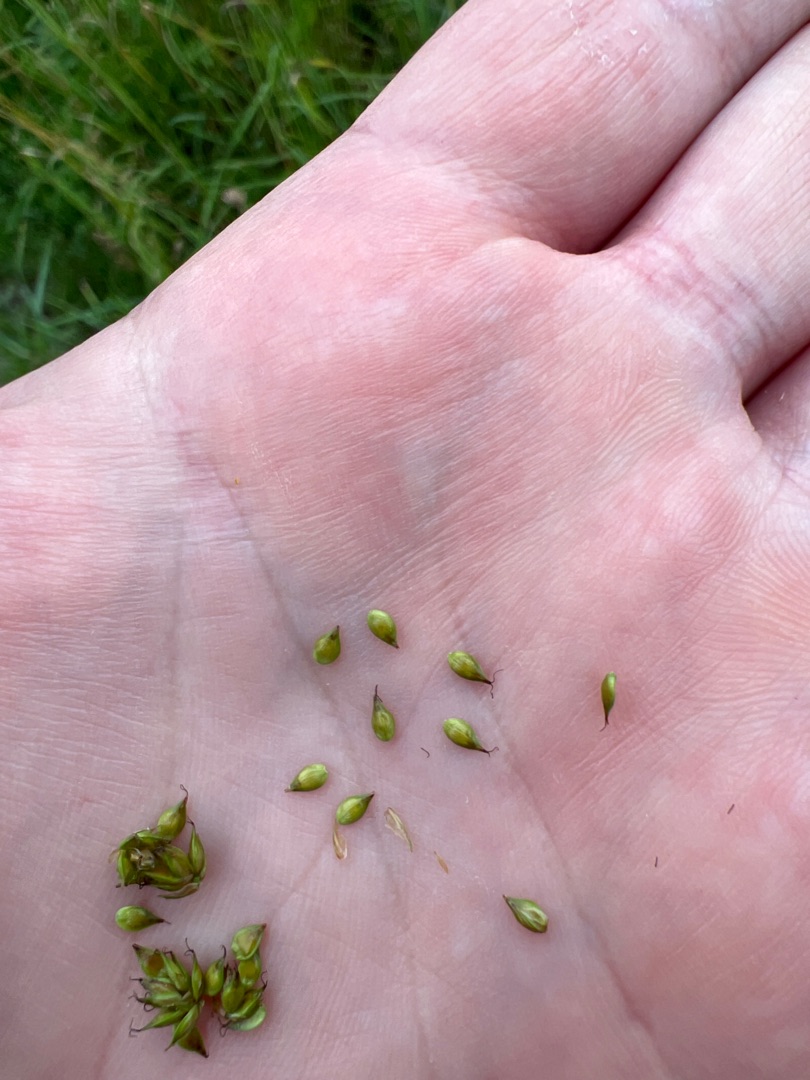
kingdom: Plantae
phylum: Tracheophyta
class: Liliopsida
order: Poales
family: Cyperaceae
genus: Carex
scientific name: Carex pairae
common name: Pigget star
